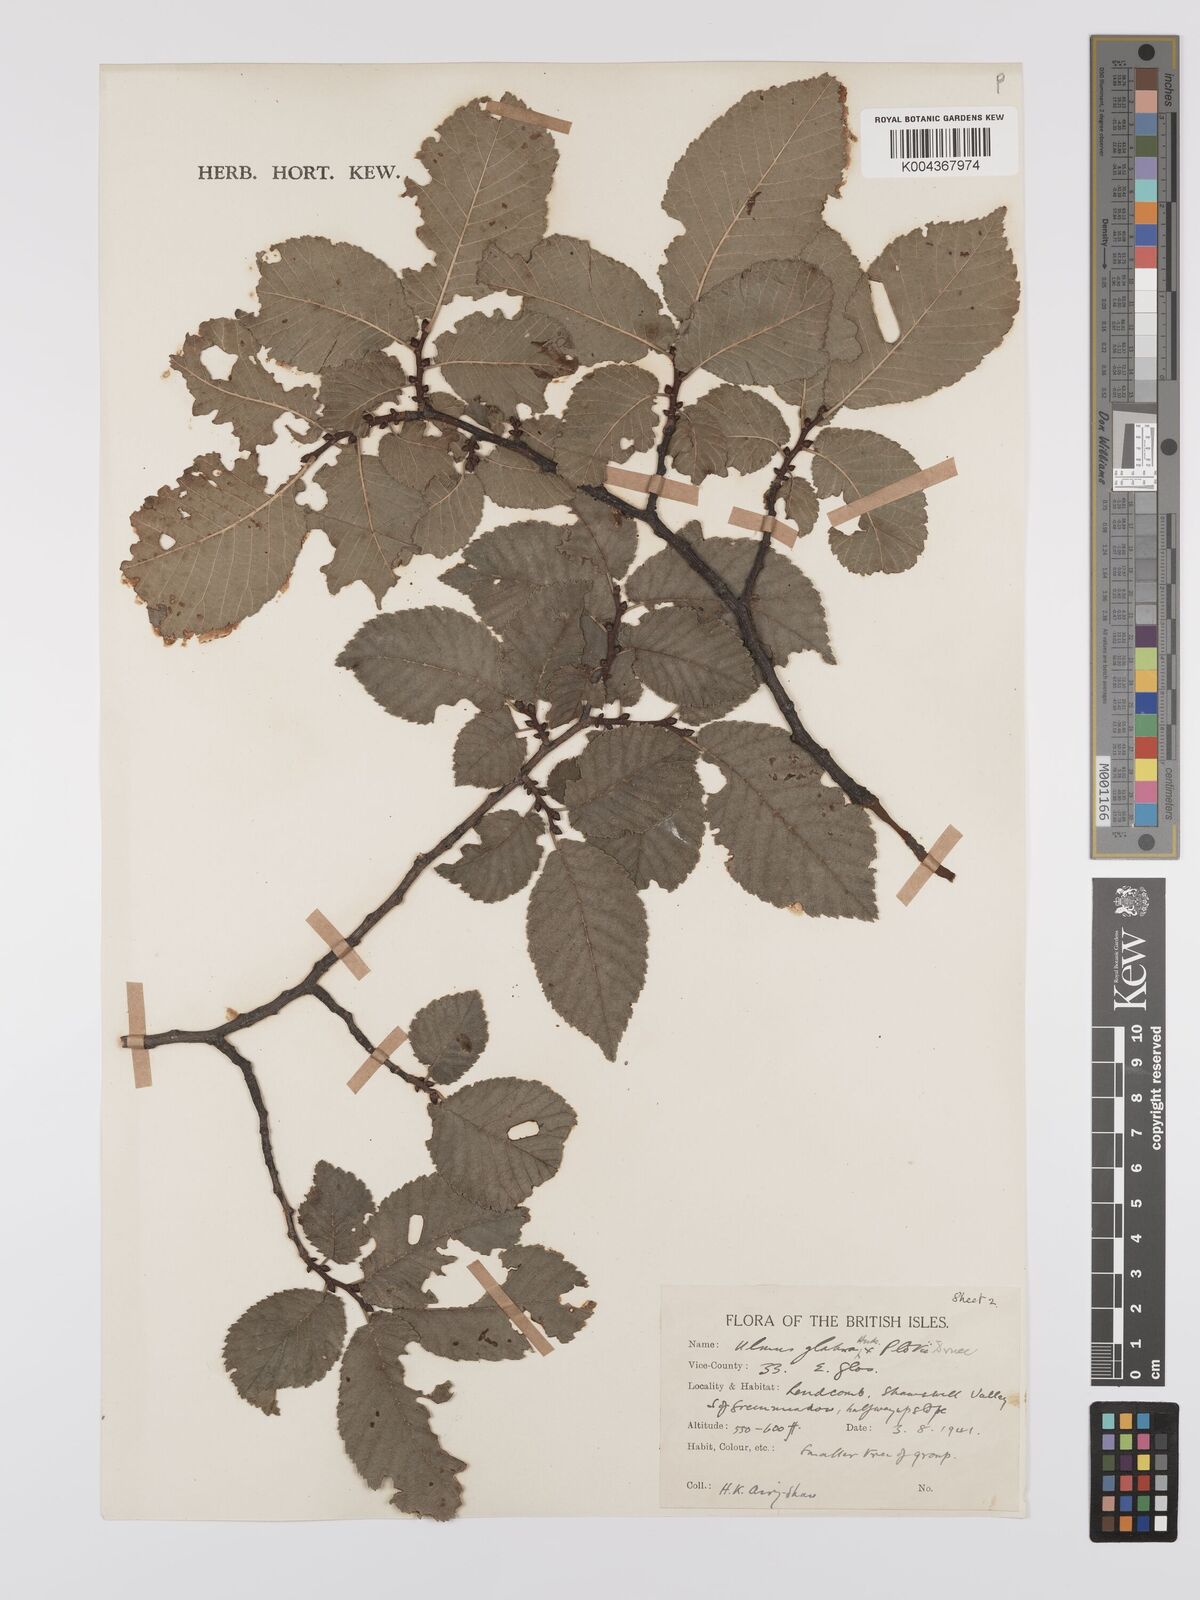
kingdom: Plantae
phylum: Tracheophyta
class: Magnoliopsida
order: Rosales
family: Ulmaceae
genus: Ulmus
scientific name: Ulmus minor
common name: Small-leaved elm
